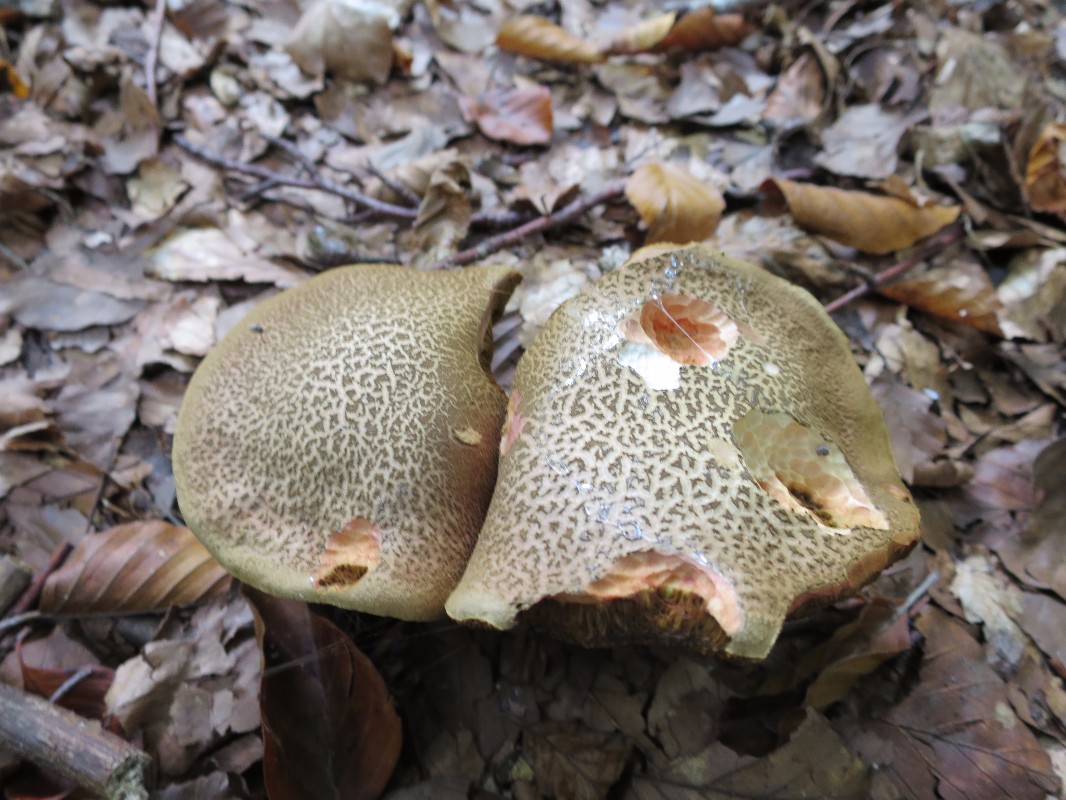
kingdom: Fungi
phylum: Basidiomycota
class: Agaricomycetes
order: Boletales
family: Boletaceae
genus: Xerocomellus
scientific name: Xerocomellus chrysenteron
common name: rødsprukken rørhat
